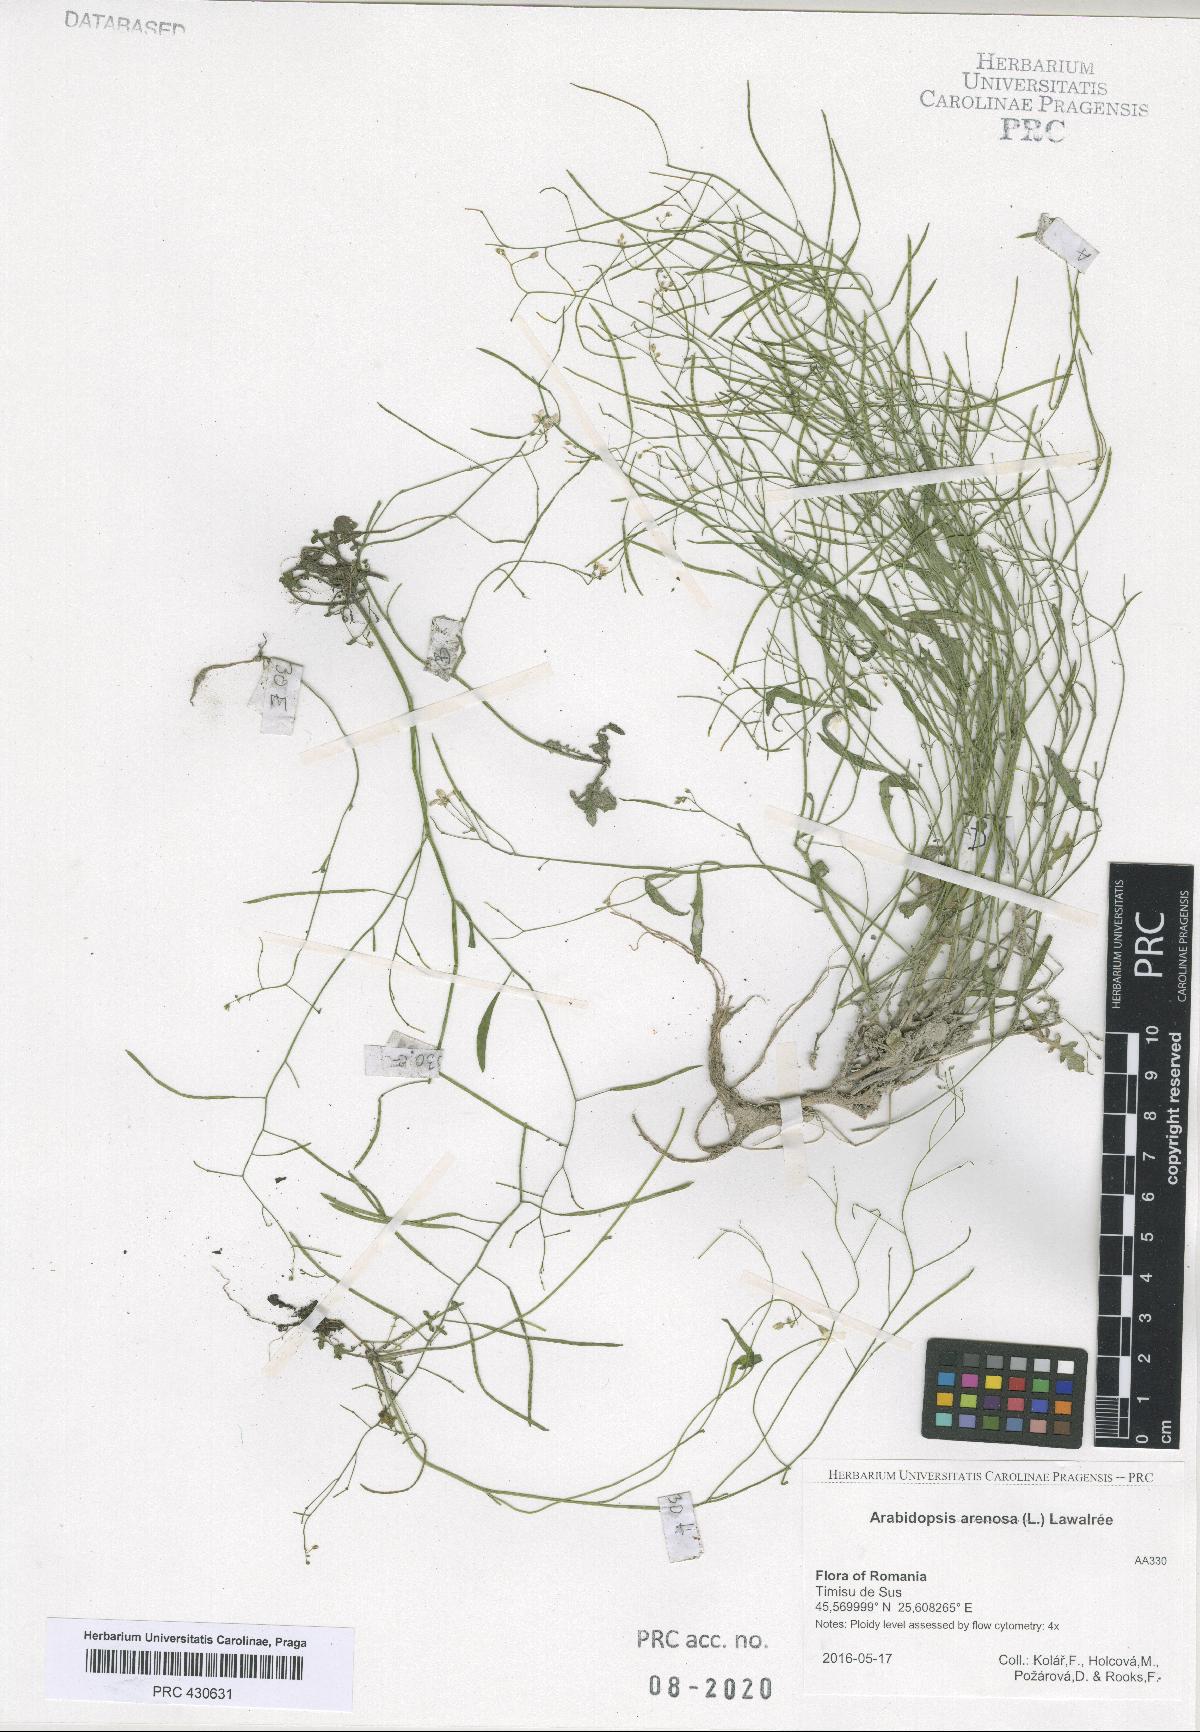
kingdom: Plantae
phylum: Tracheophyta
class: Magnoliopsida
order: Brassicales
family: Brassicaceae
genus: Arabidopsis
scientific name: Arabidopsis arenosa
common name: Sand rock-cress
